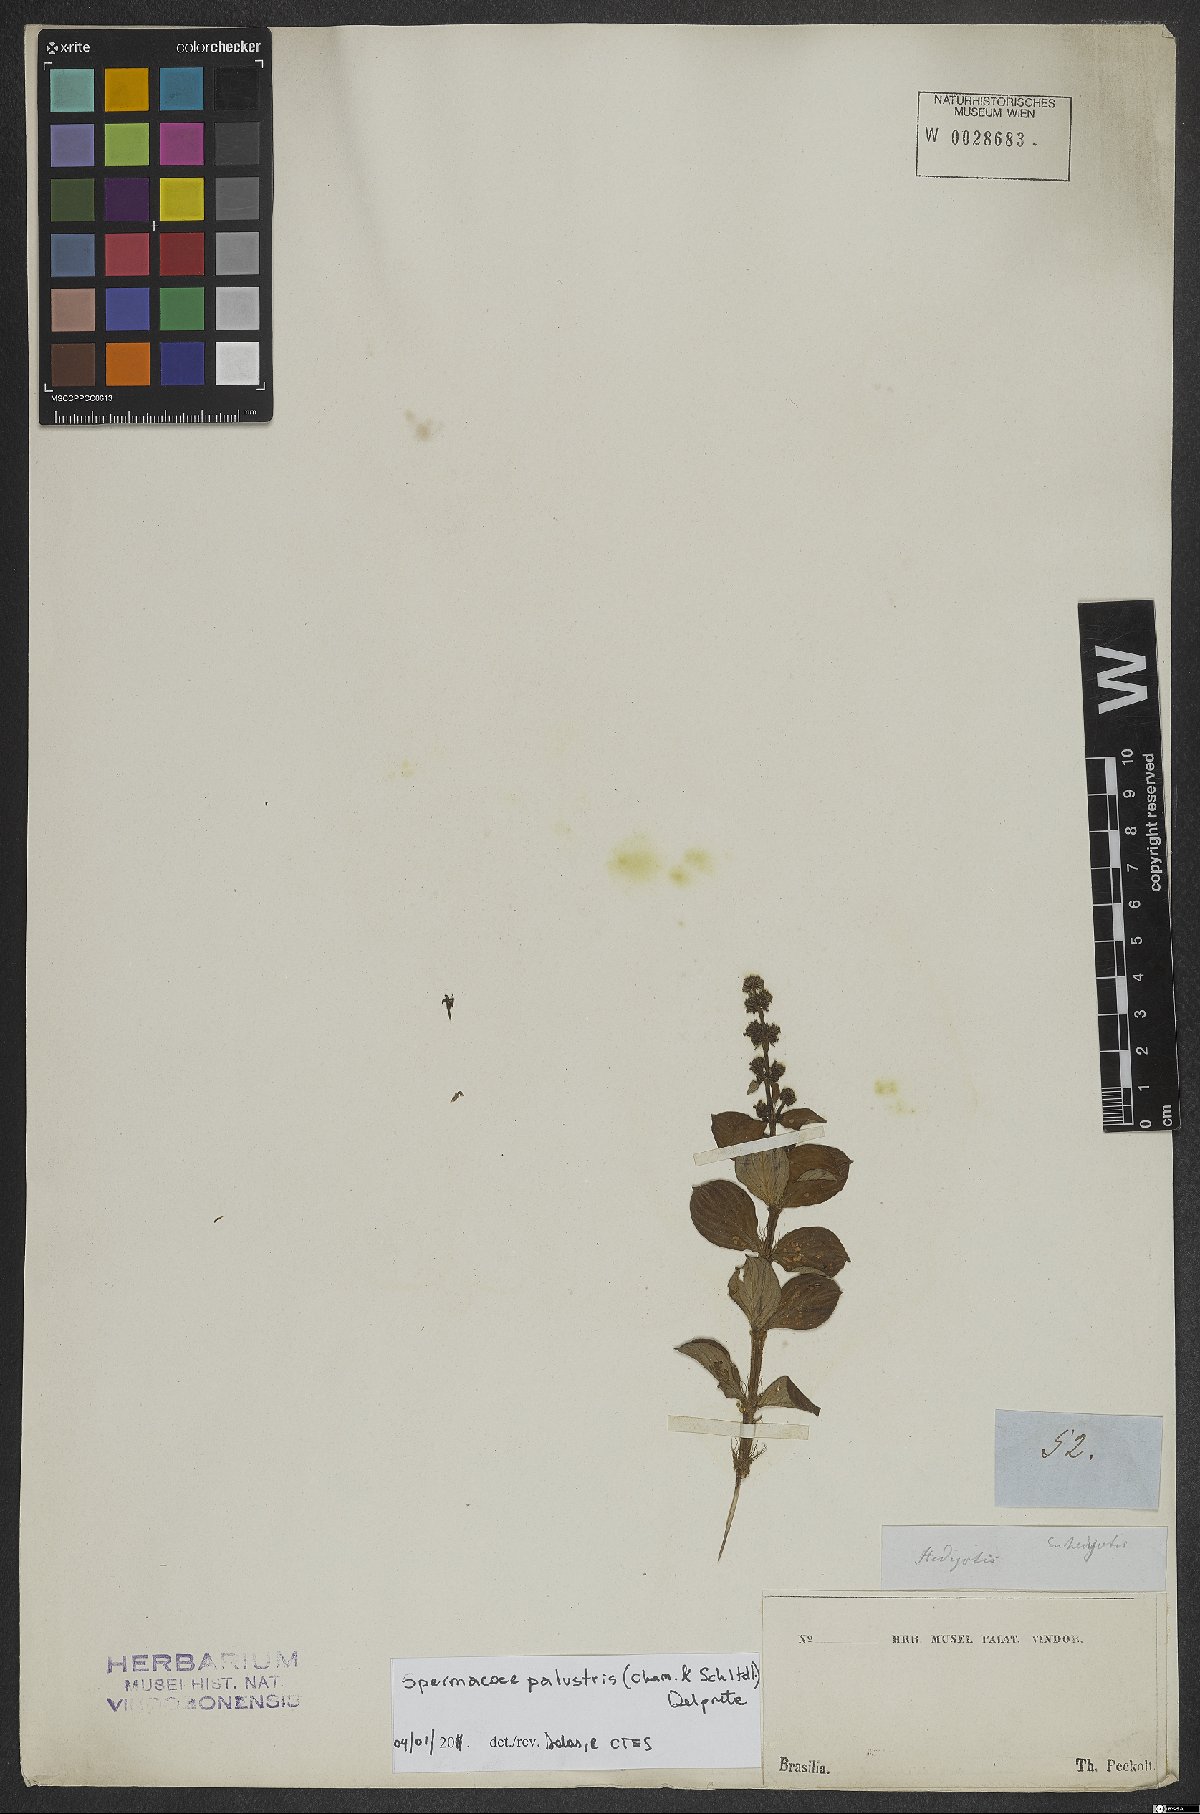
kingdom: Plantae
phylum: Tracheophyta
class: Magnoliopsida
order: Gentianales
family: Rubiaceae
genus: Galianthe
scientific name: Galianthe palustris
